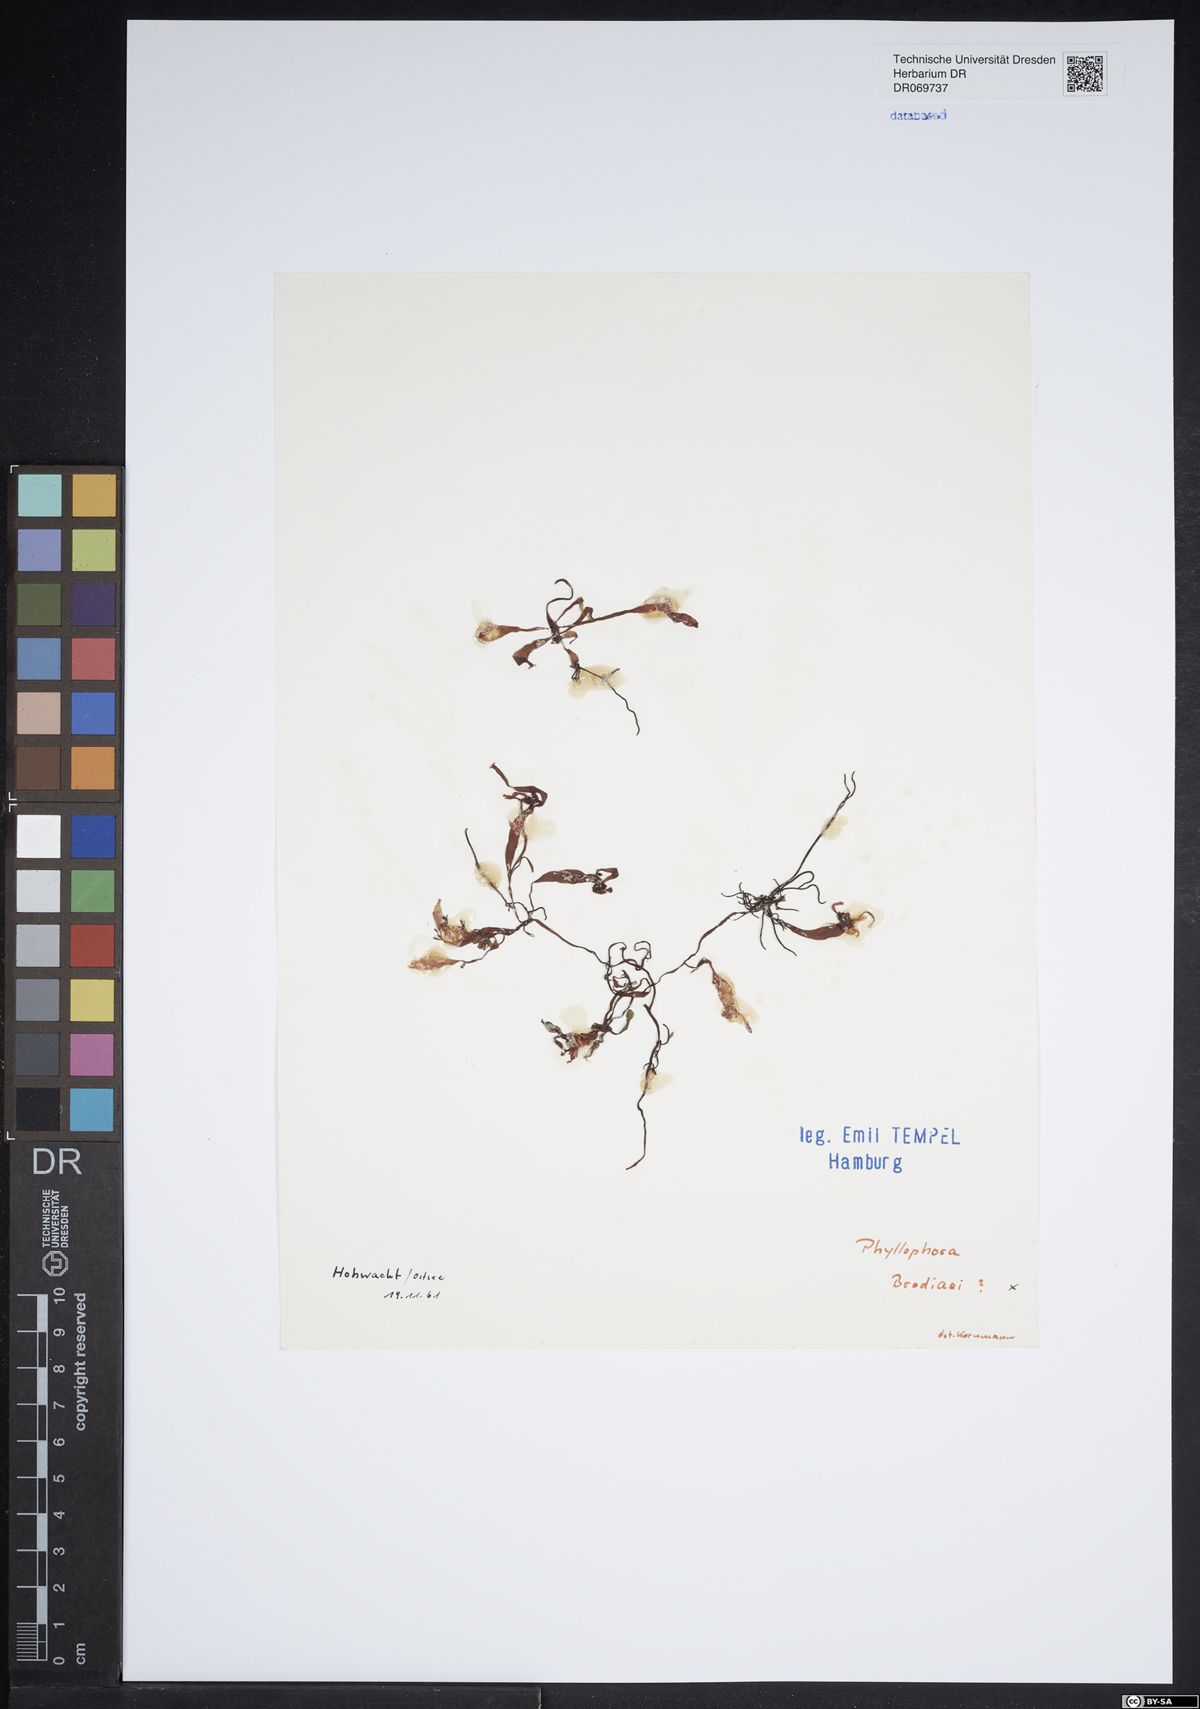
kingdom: Plantae
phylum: Rhodophyta
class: Florideophyceae
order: Gigartinales
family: Phyllophoraceae
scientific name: Phyllophoraceae
